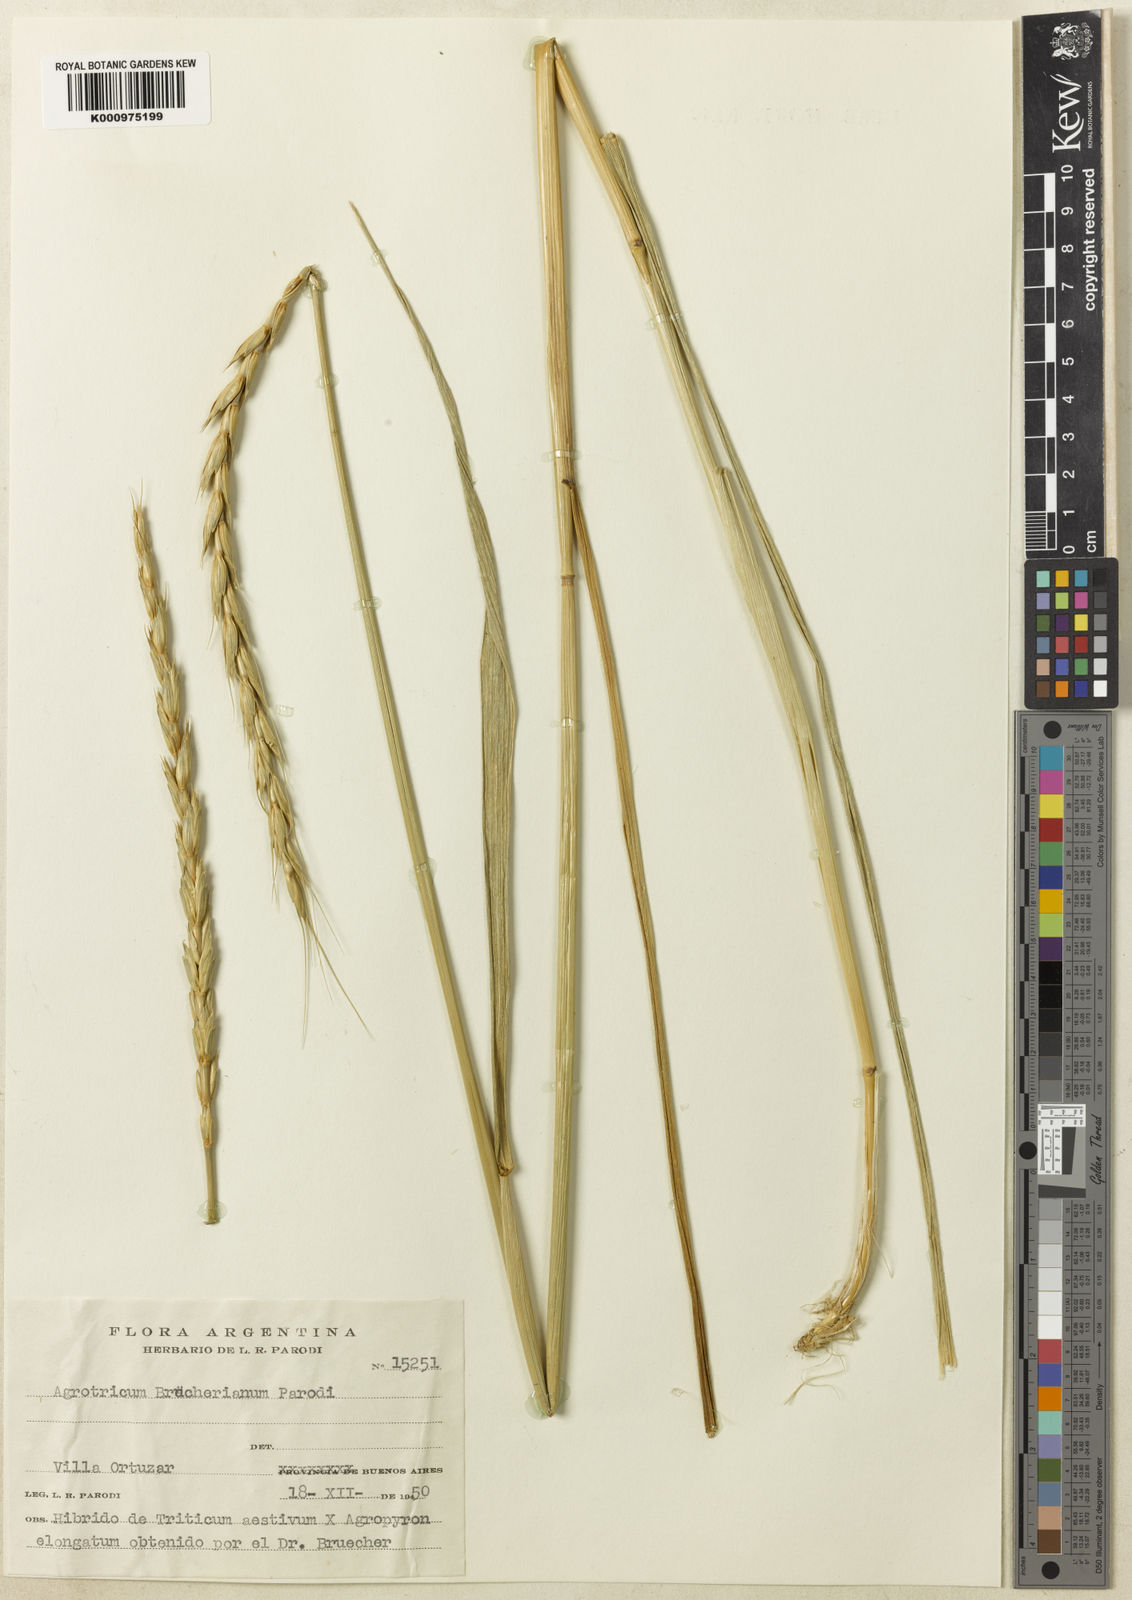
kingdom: Plantae
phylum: Tracheophyta
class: Liliopsida
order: Poales
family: Poaceae
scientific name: Poaceae
